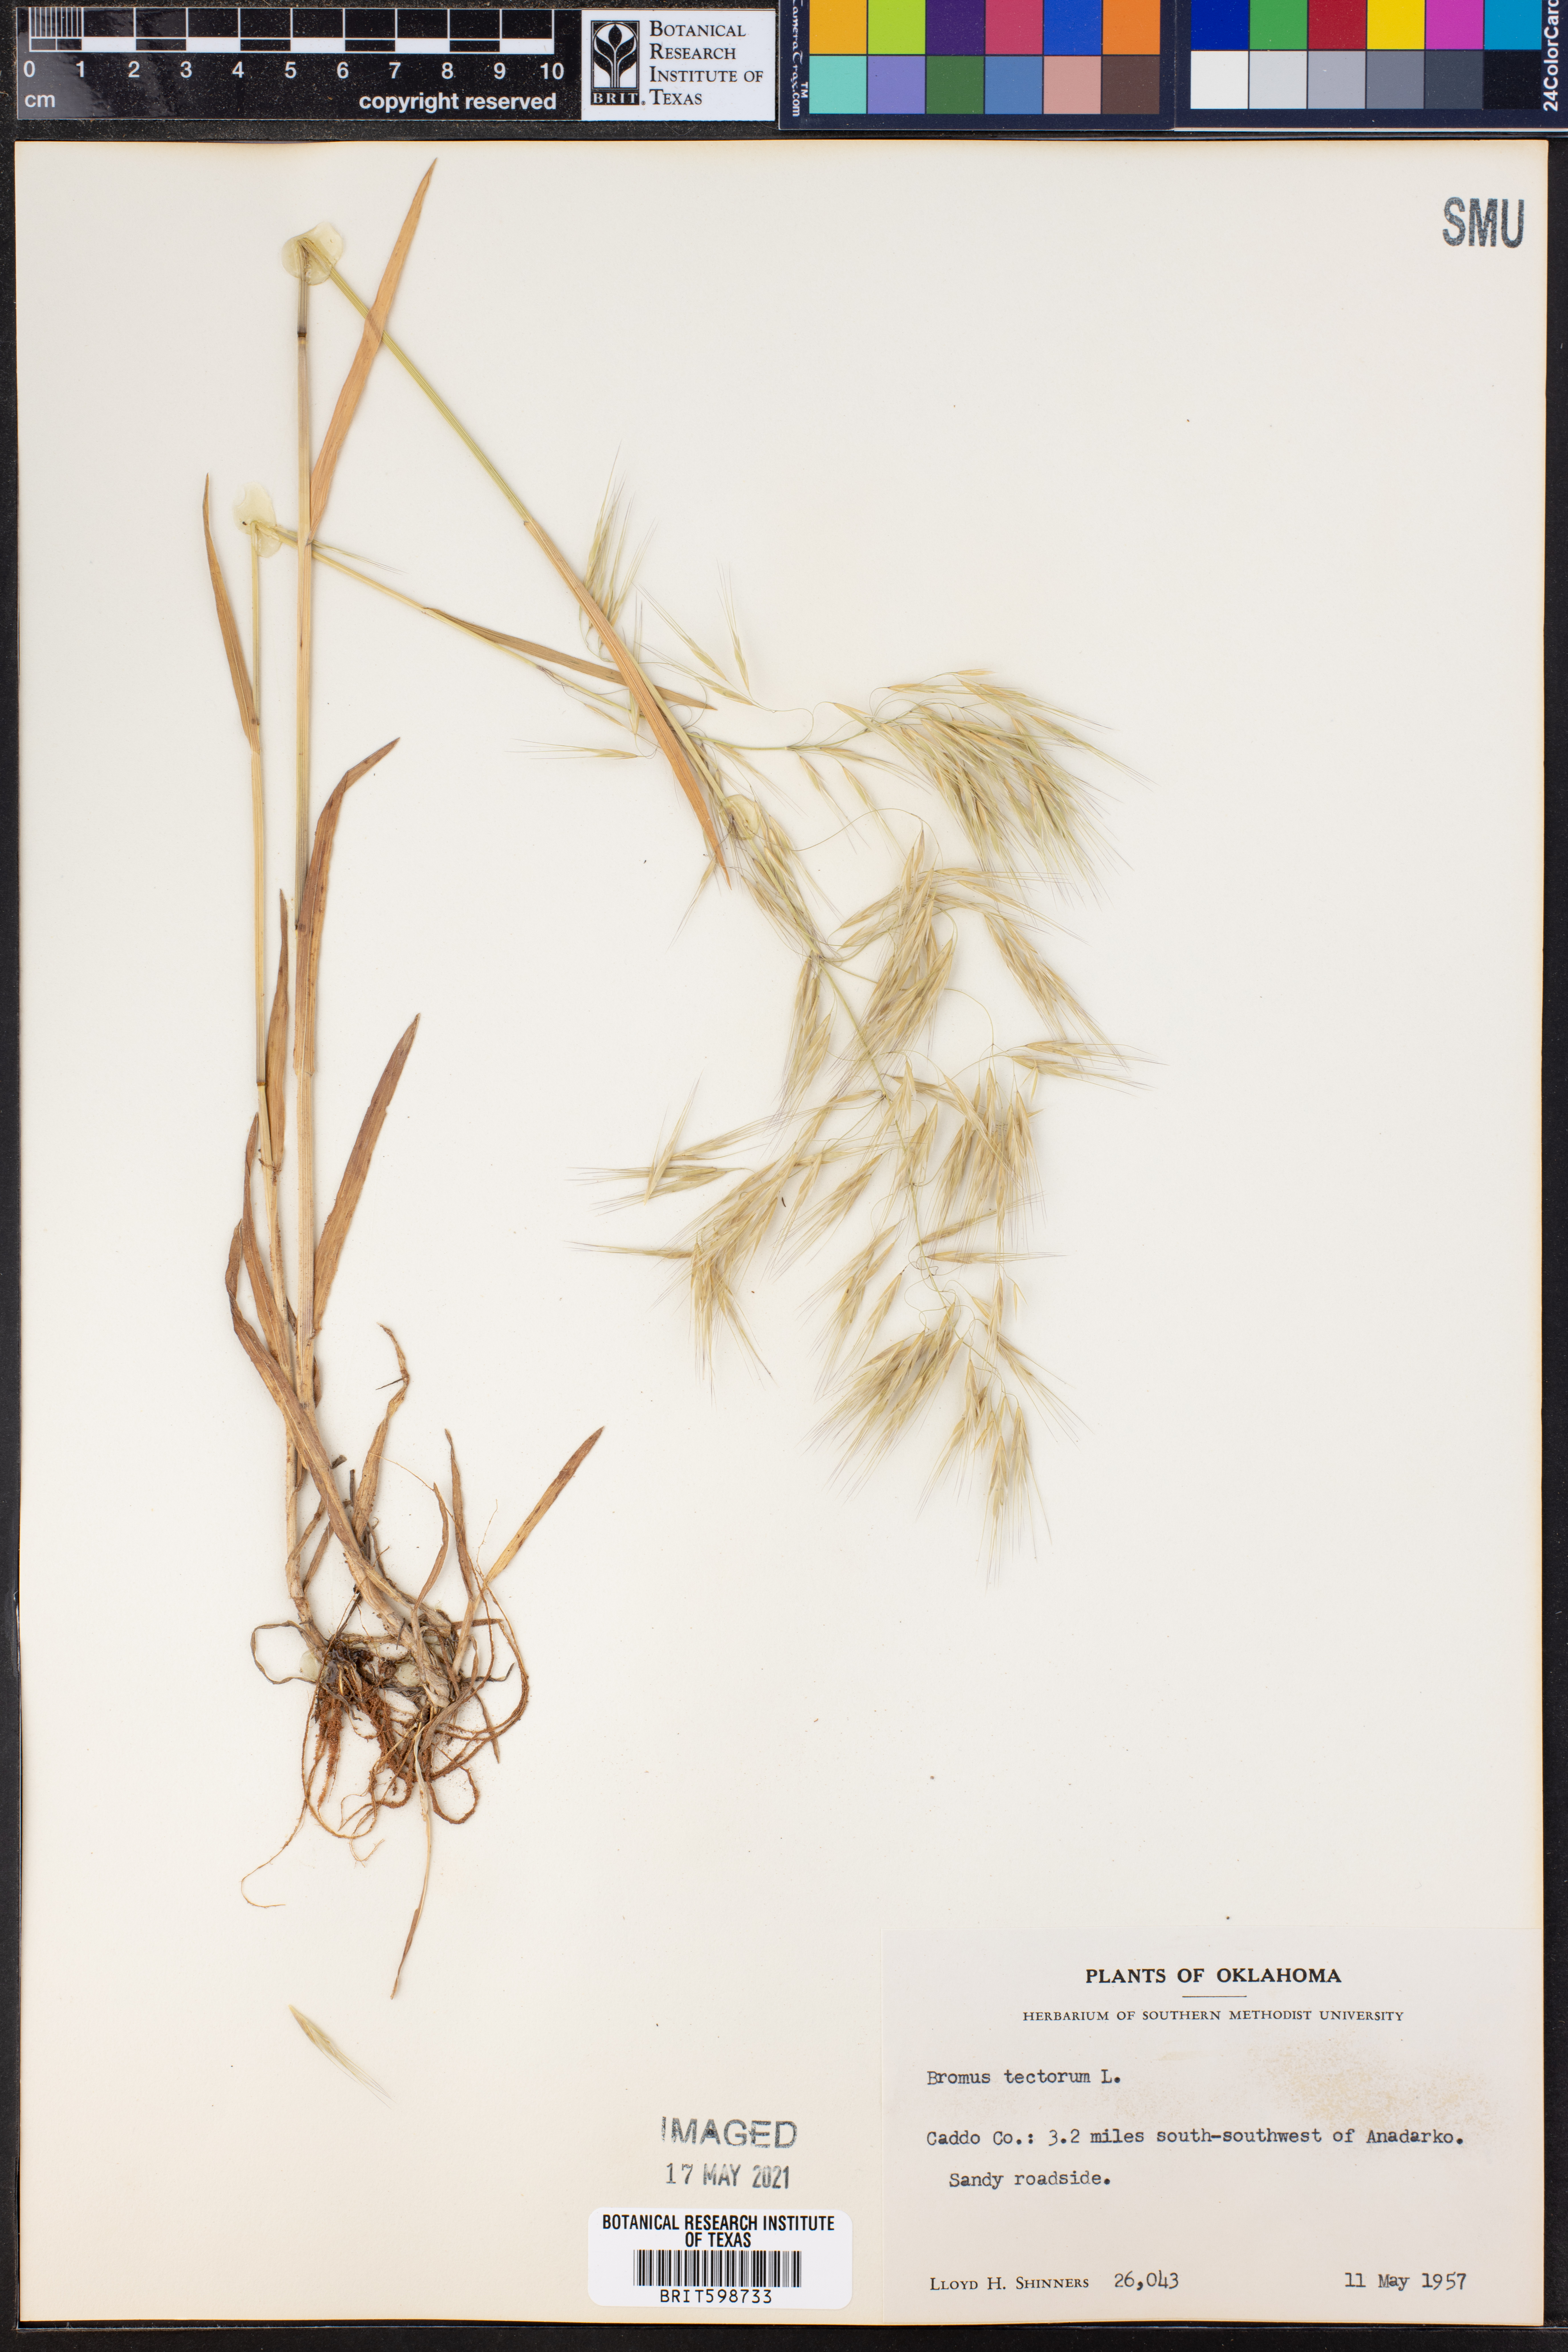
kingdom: Plantae
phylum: Tracheophyta
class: Liliopsida
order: Poales
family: Poaceae
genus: Bromus
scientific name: Bromus tectorum
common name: Cheatgrass
